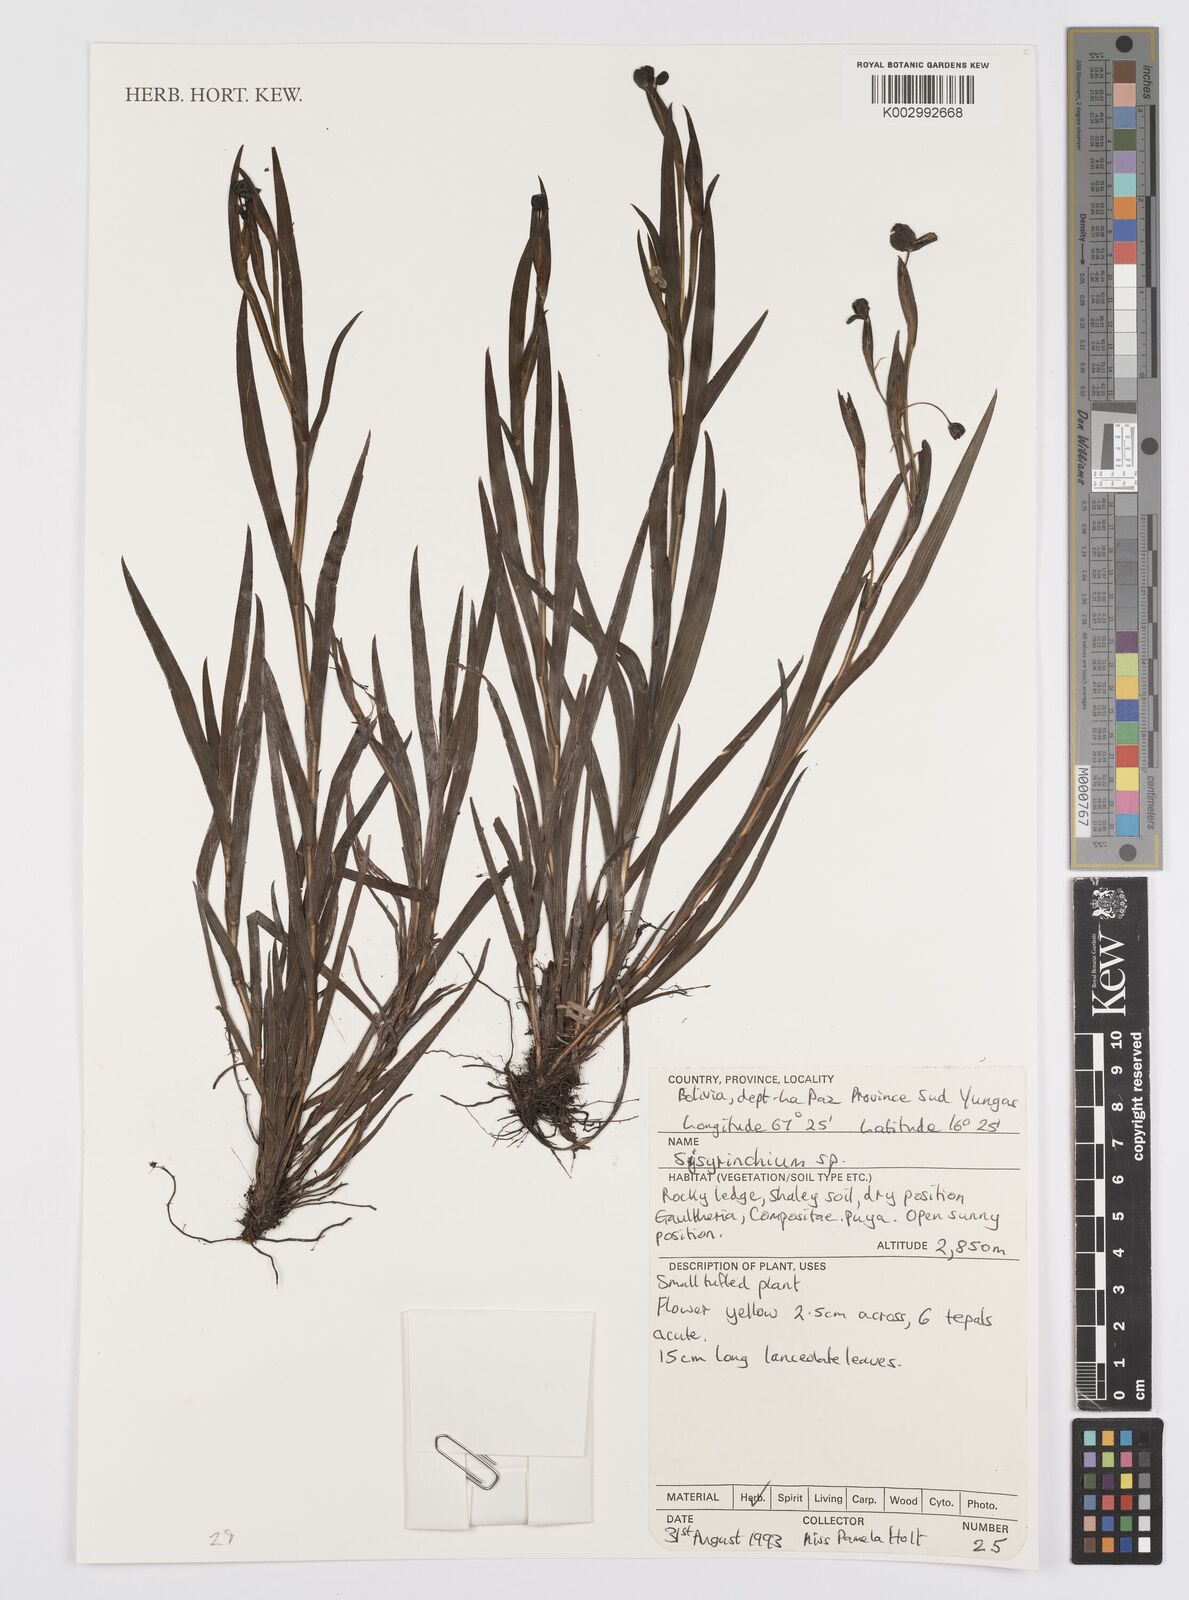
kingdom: Plantae
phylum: Tracheophyta
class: Liliopsida
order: Asparagales
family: Iridaceae
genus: Sisyrinchium
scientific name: Sisyrinchium
